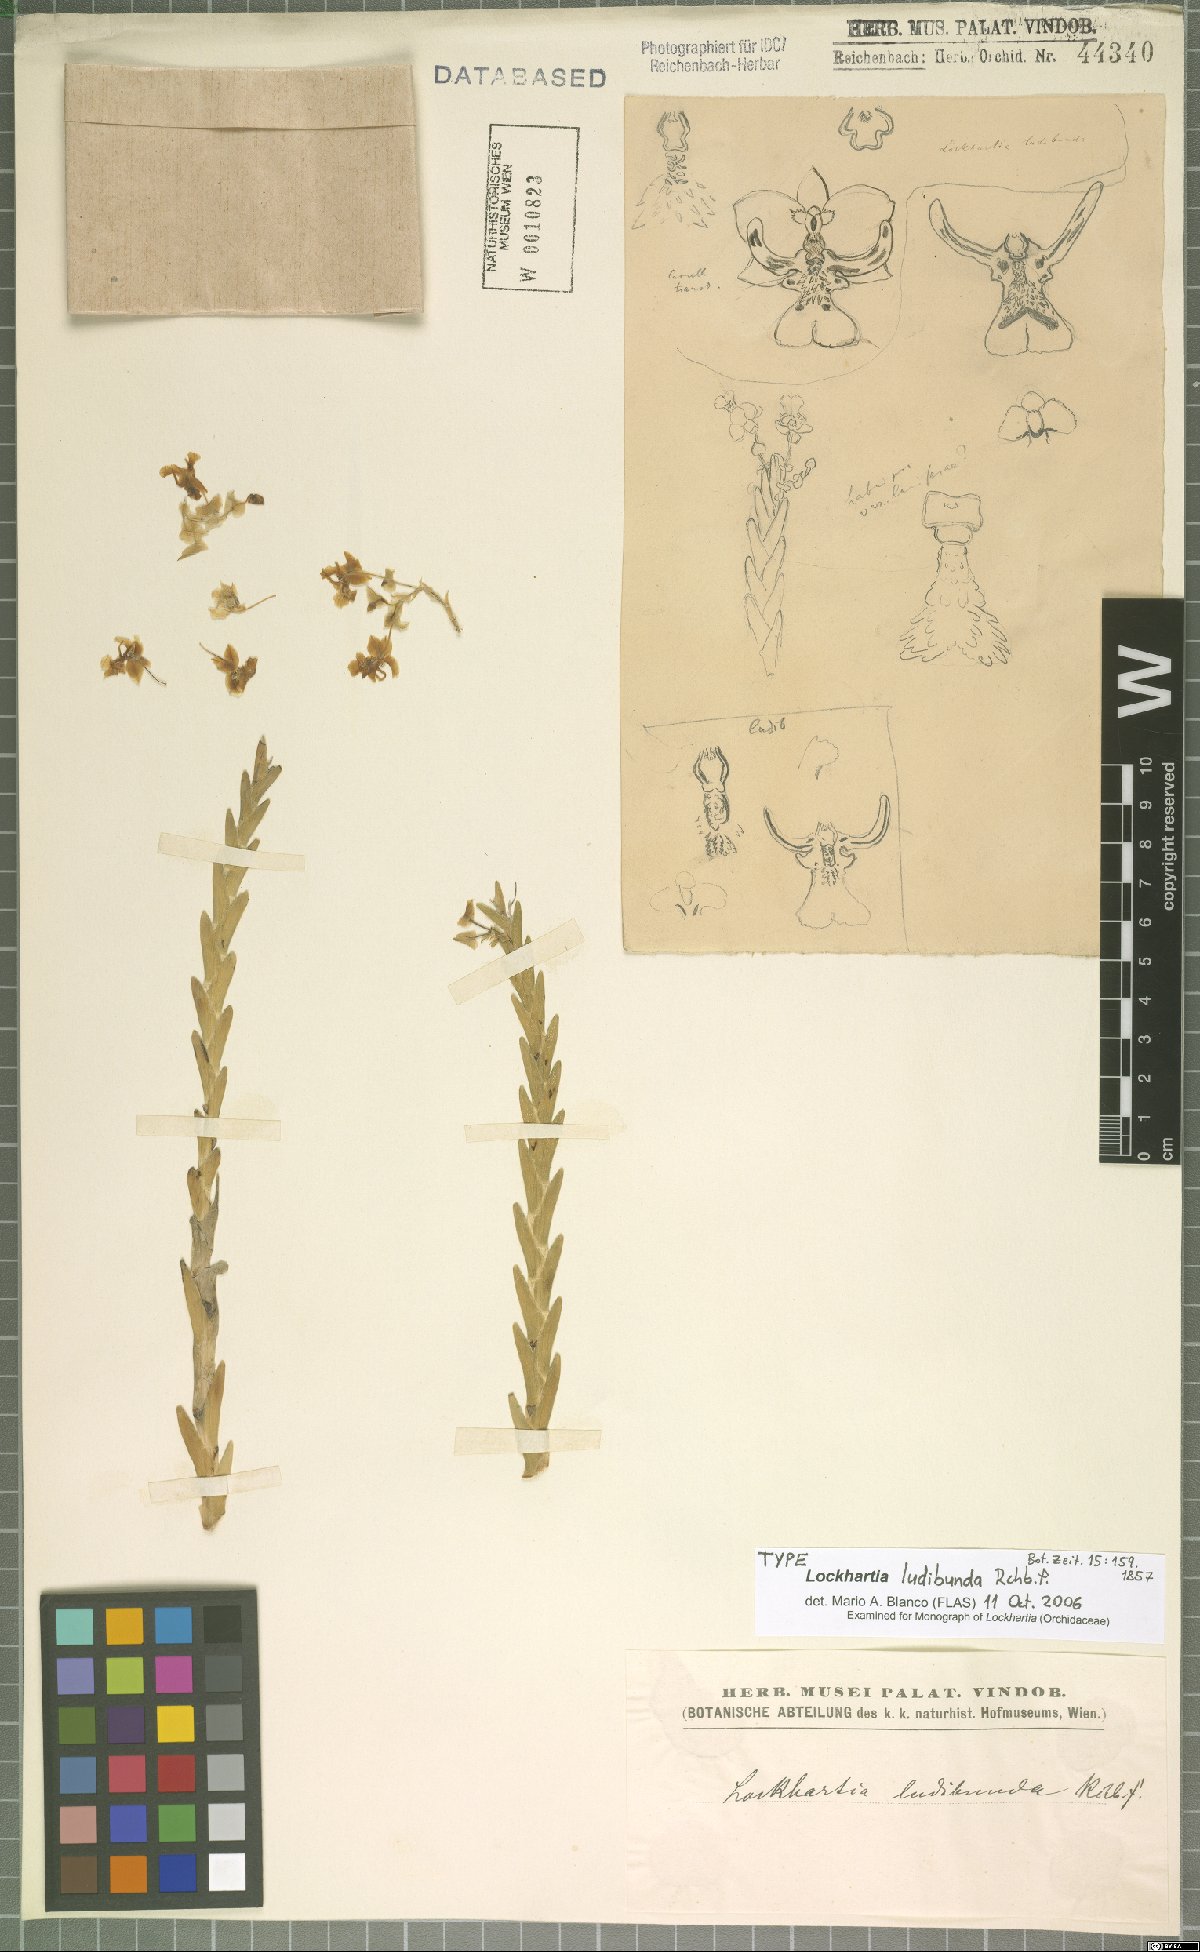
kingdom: Plantae
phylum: Tracheophyta
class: Liliopsida
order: Asparagales
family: Orchidaceae
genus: Lockhartia
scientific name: Lockhartia ludibunda
